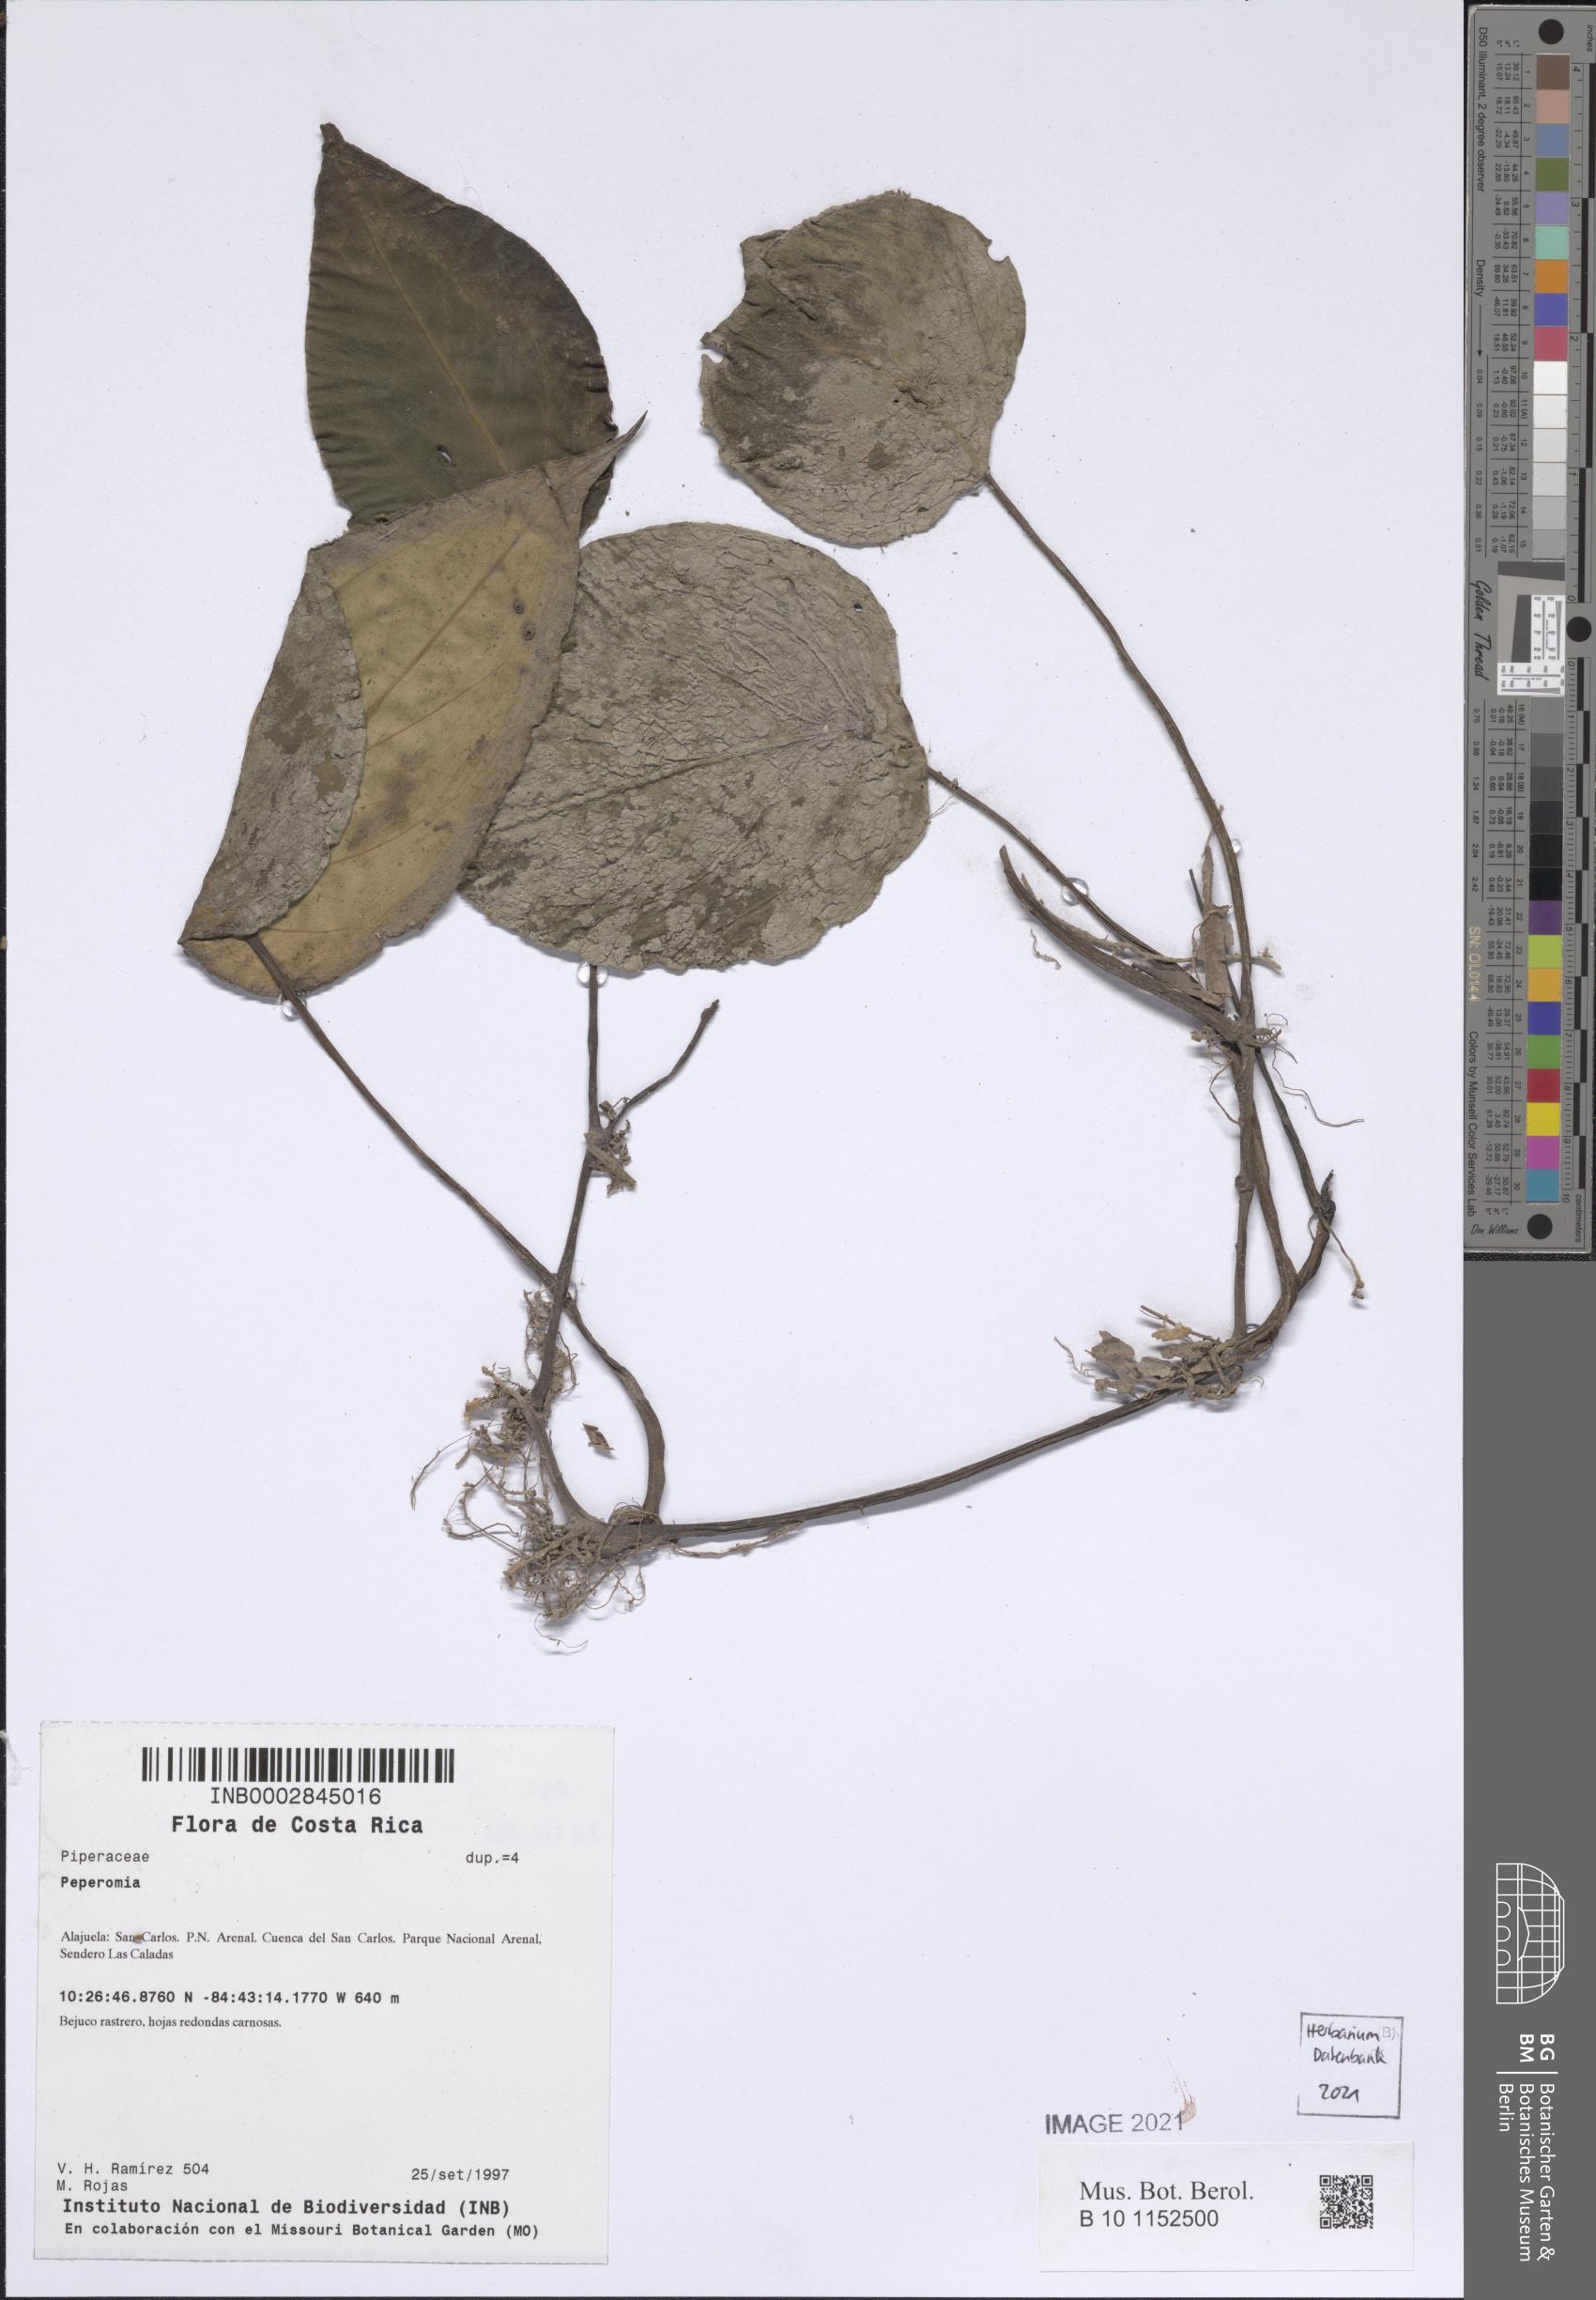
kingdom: Plantae
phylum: Tracheophyta
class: Magnoliopsida
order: Piperales
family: Piperaceae
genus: Peperomia
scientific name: Peperomia
